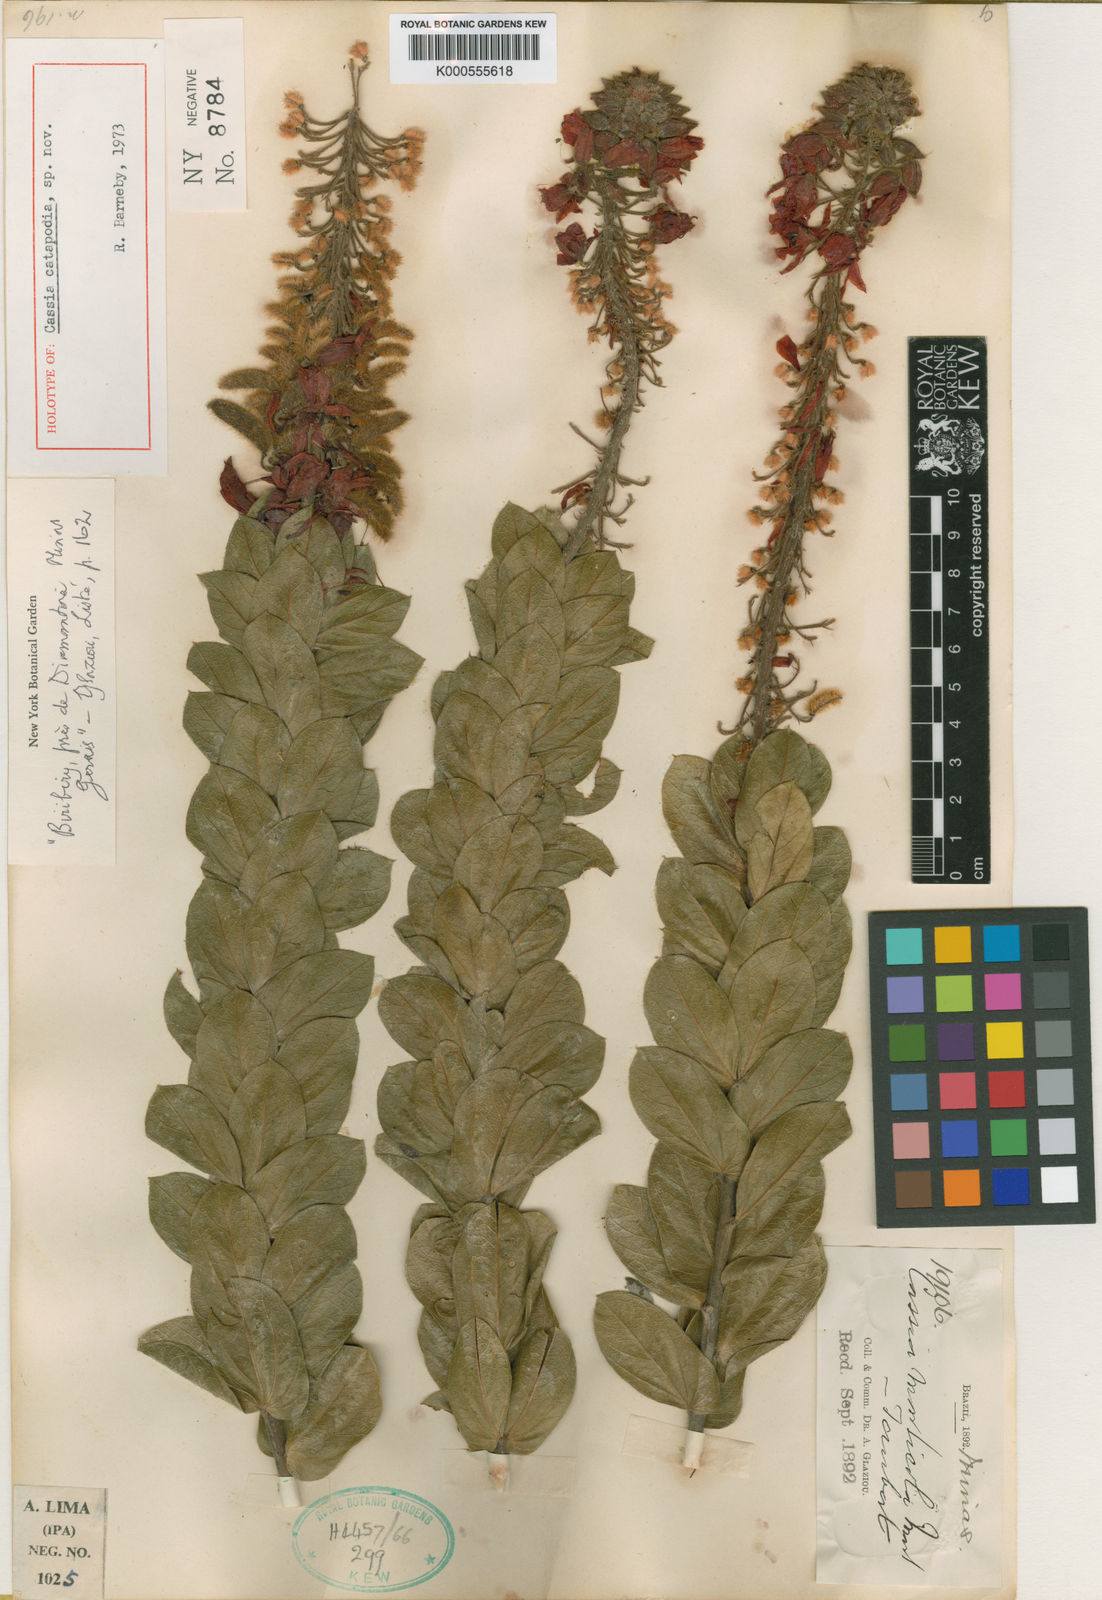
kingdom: Plantae
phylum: Tracheophyta
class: Magnoliopsida
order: Fabales
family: Fabaceae
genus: Chamaecrista
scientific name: Chamaecrista paraunana
